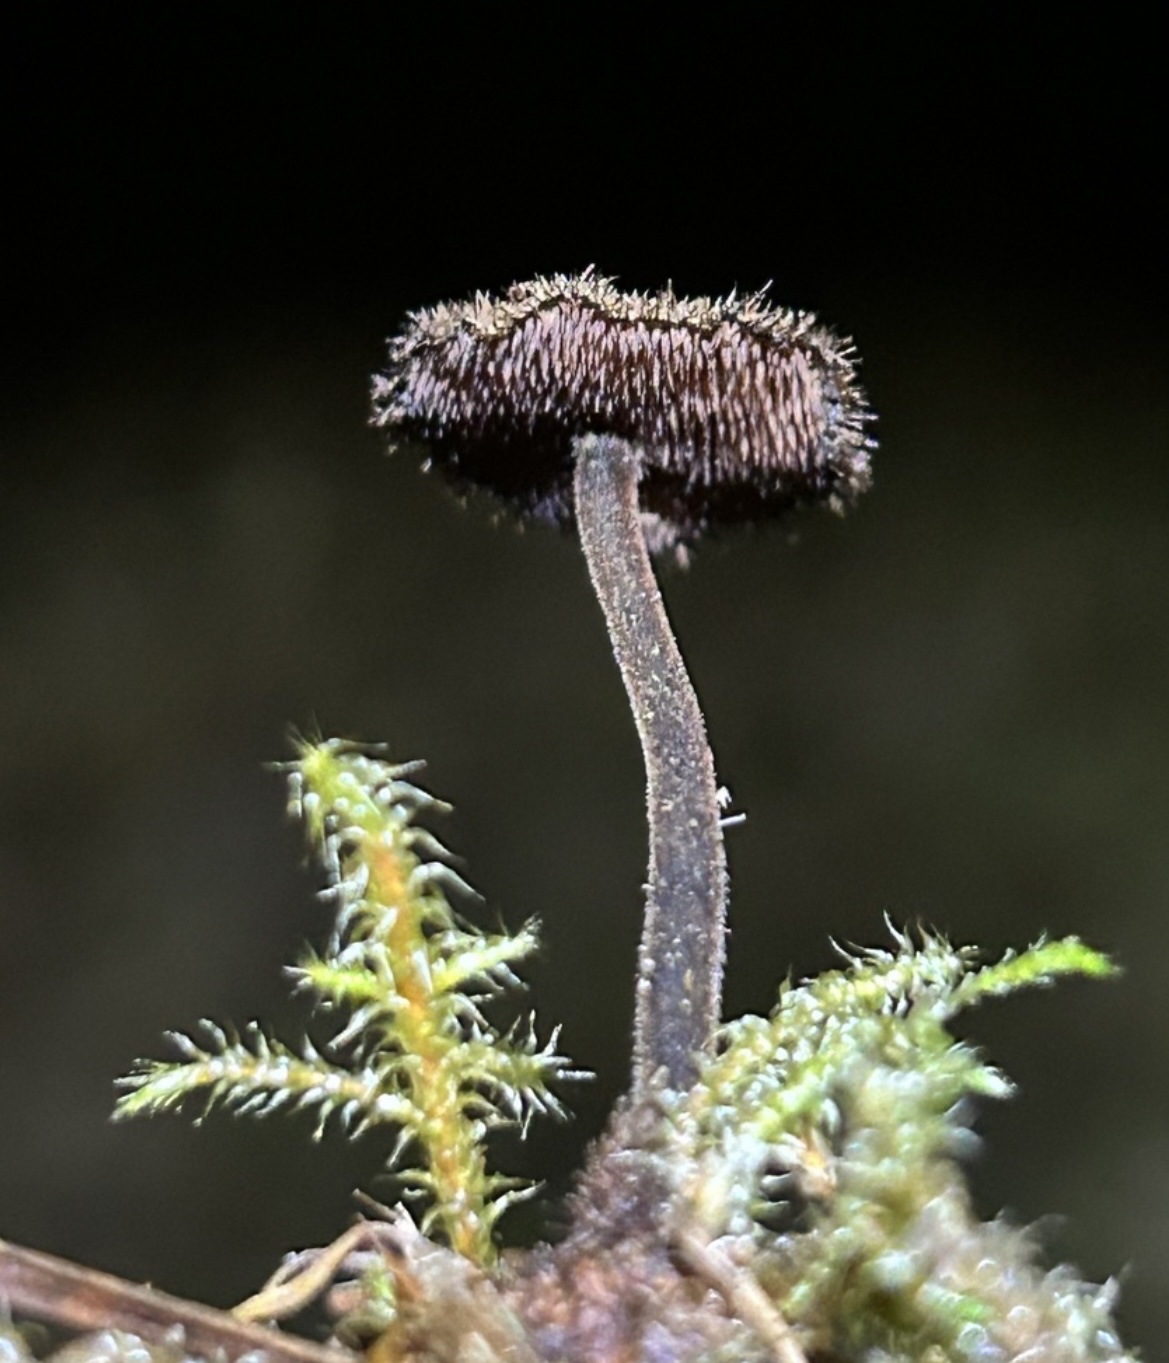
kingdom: Fungi
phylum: Basidiomycota
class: Agaricomycetes
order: Russulales
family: Auriscalpiaceae
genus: Auriscalpium
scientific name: Auriscalpium vulgare
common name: koglepigsvamp
